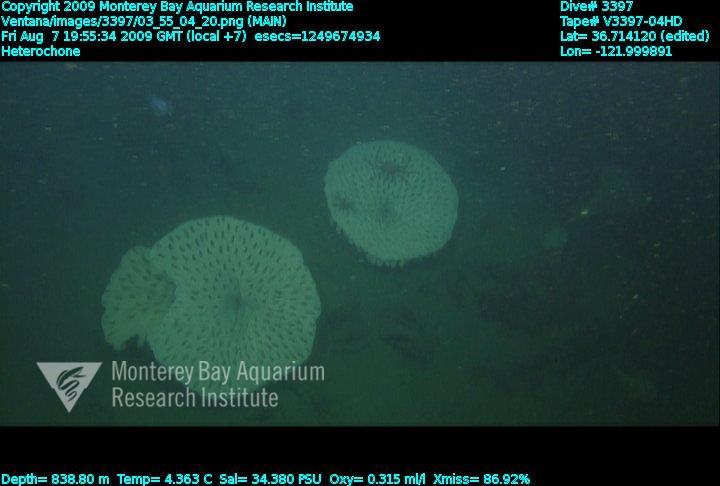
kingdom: Animalia
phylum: Porifera
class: Hexactinellida
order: Sceptrulophora
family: Aphrocallistidae
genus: Heterochone
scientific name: Heterochone
